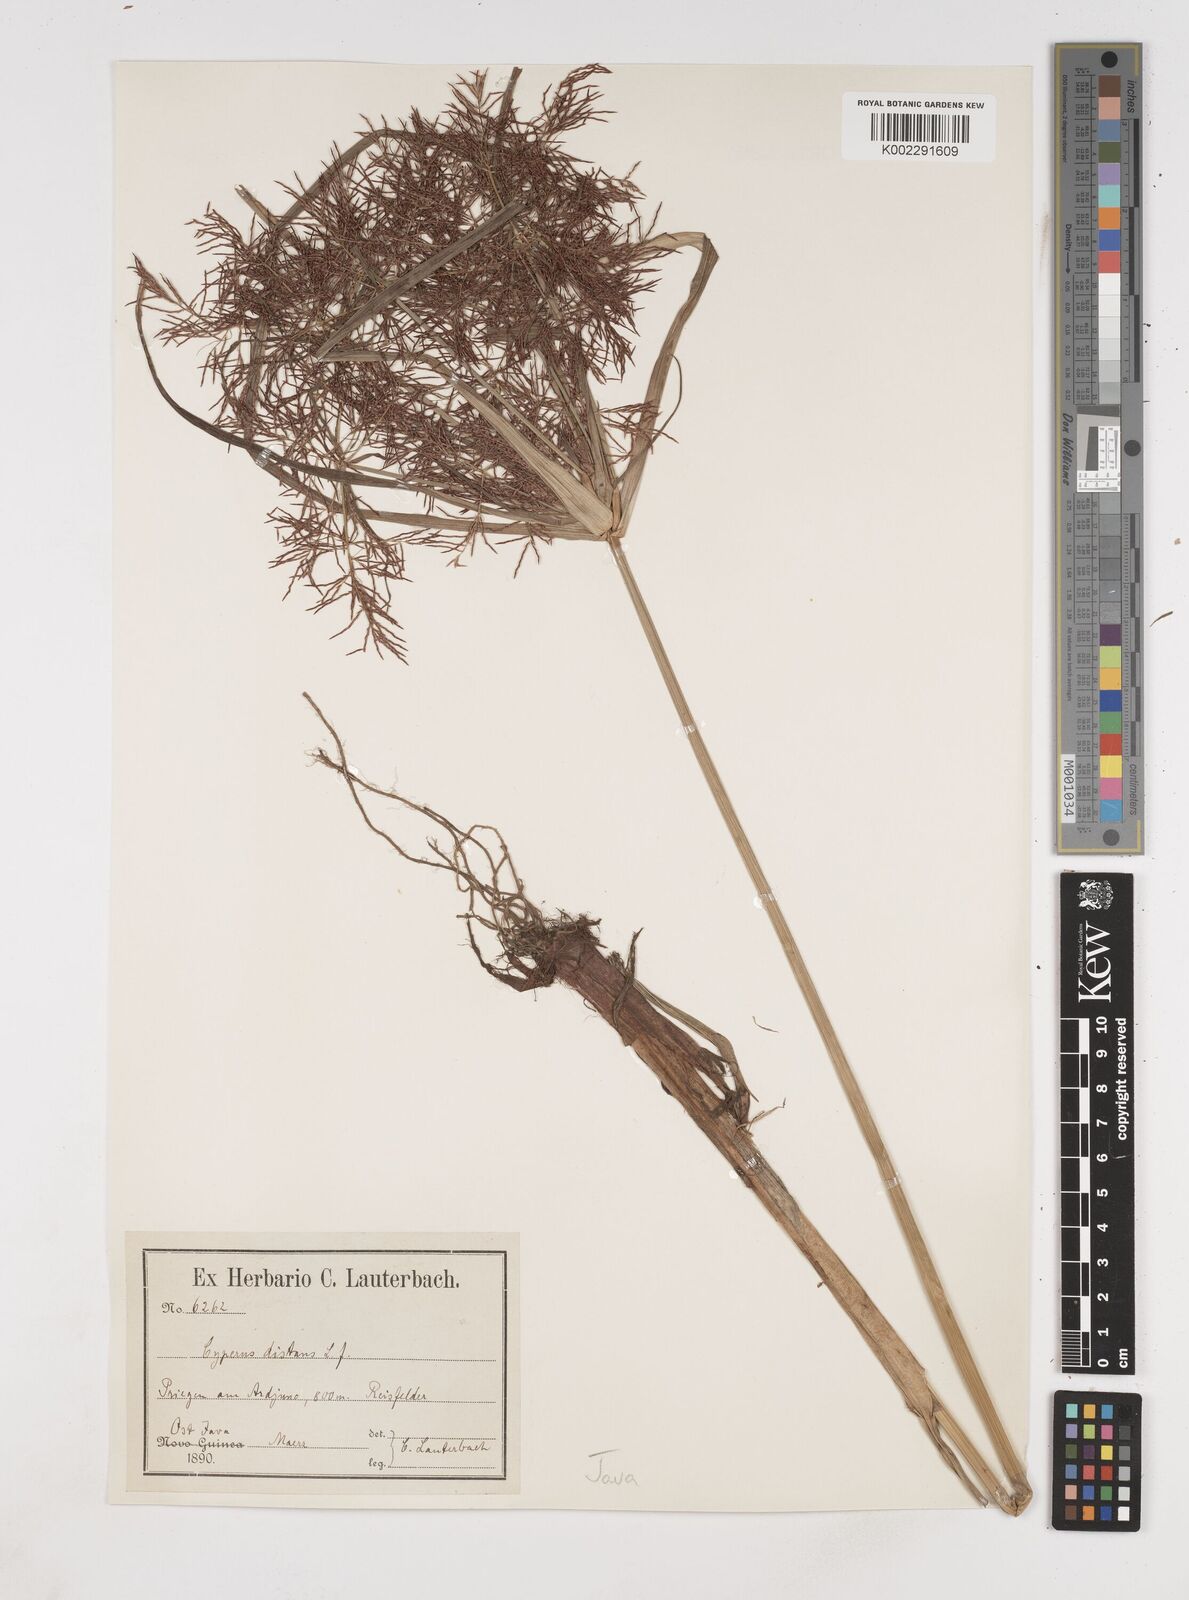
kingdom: Plantae
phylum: Tracheophyta
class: Liliopsida
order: Poales
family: Cyperaceae
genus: Cyperus
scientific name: Cyperus distans
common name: Slender cyperus
